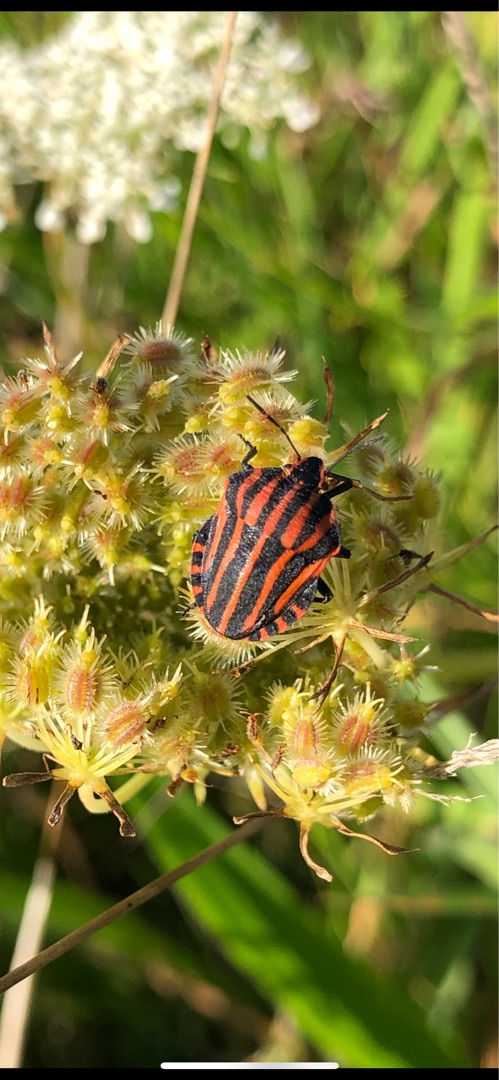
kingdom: Animalia
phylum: Arthropoda
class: Insecta
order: Hemiptera
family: Pentatomidae
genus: Graphosoma
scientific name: Graphosoma italicum
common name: Stribetæge
